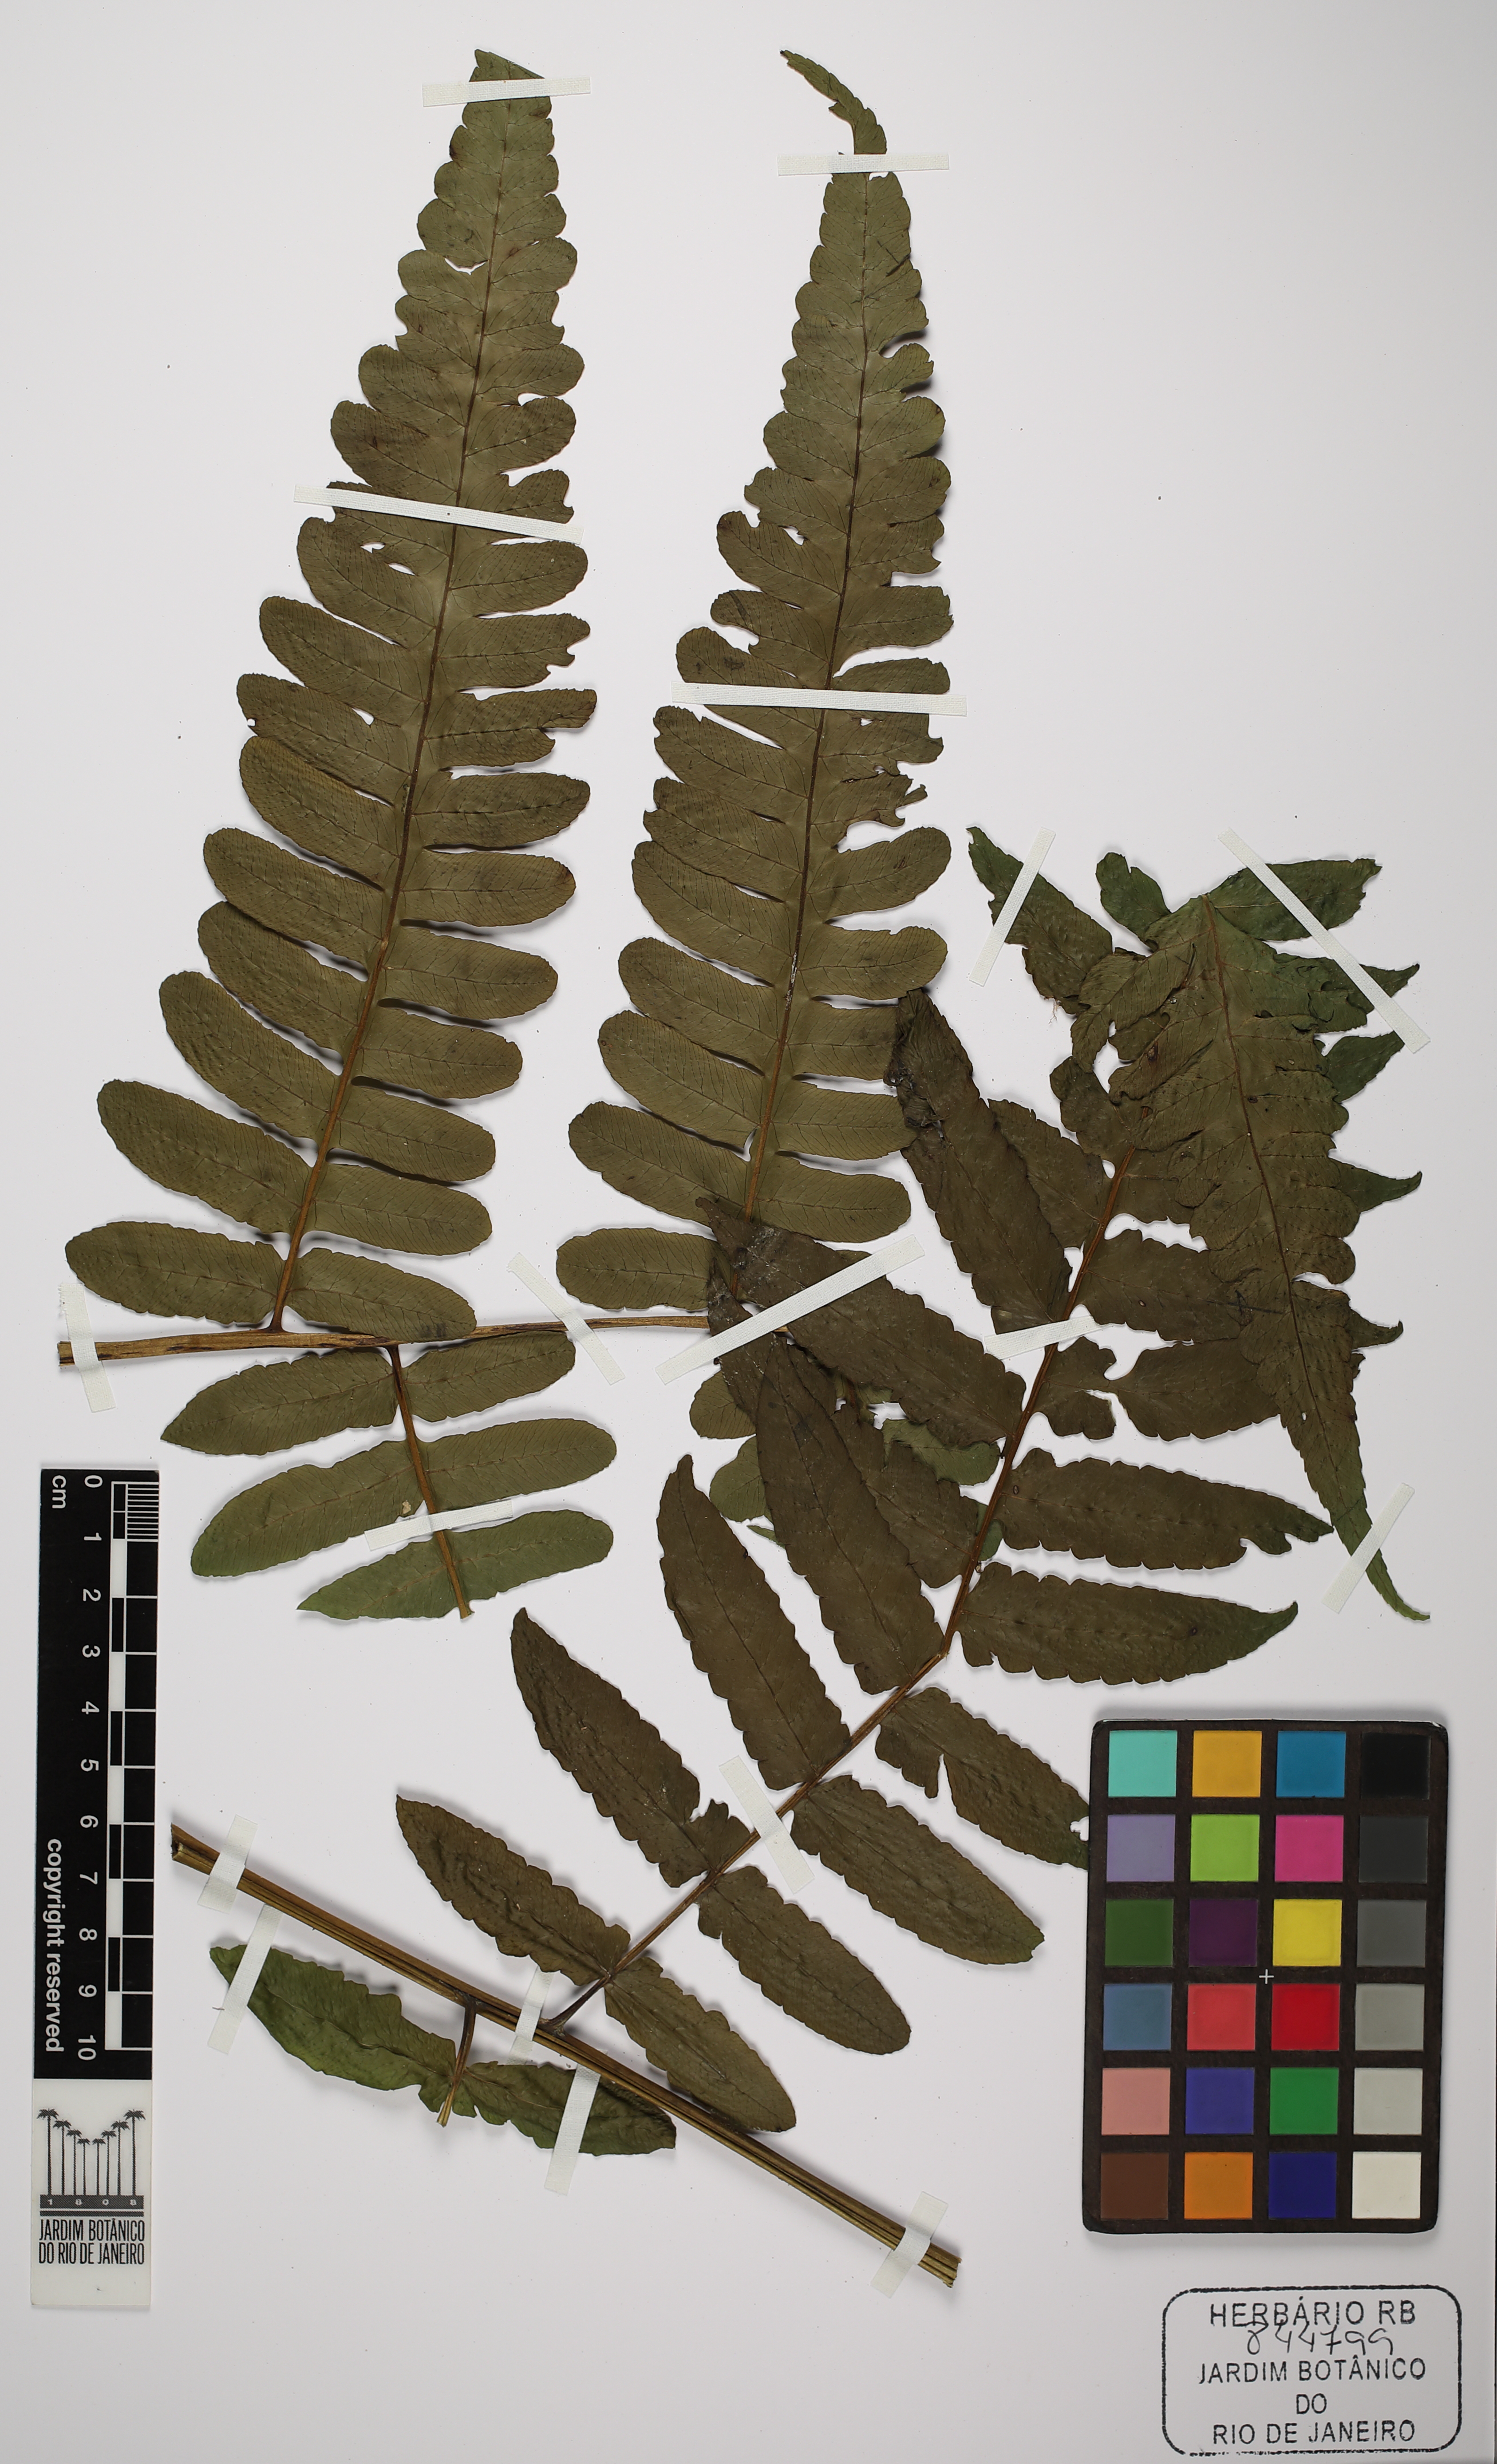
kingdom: Plantae
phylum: Tracheophyta
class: Polypodiopsida
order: Polypodiales
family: Athyriaceae
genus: Diplazium
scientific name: Diplazium ambiguum
